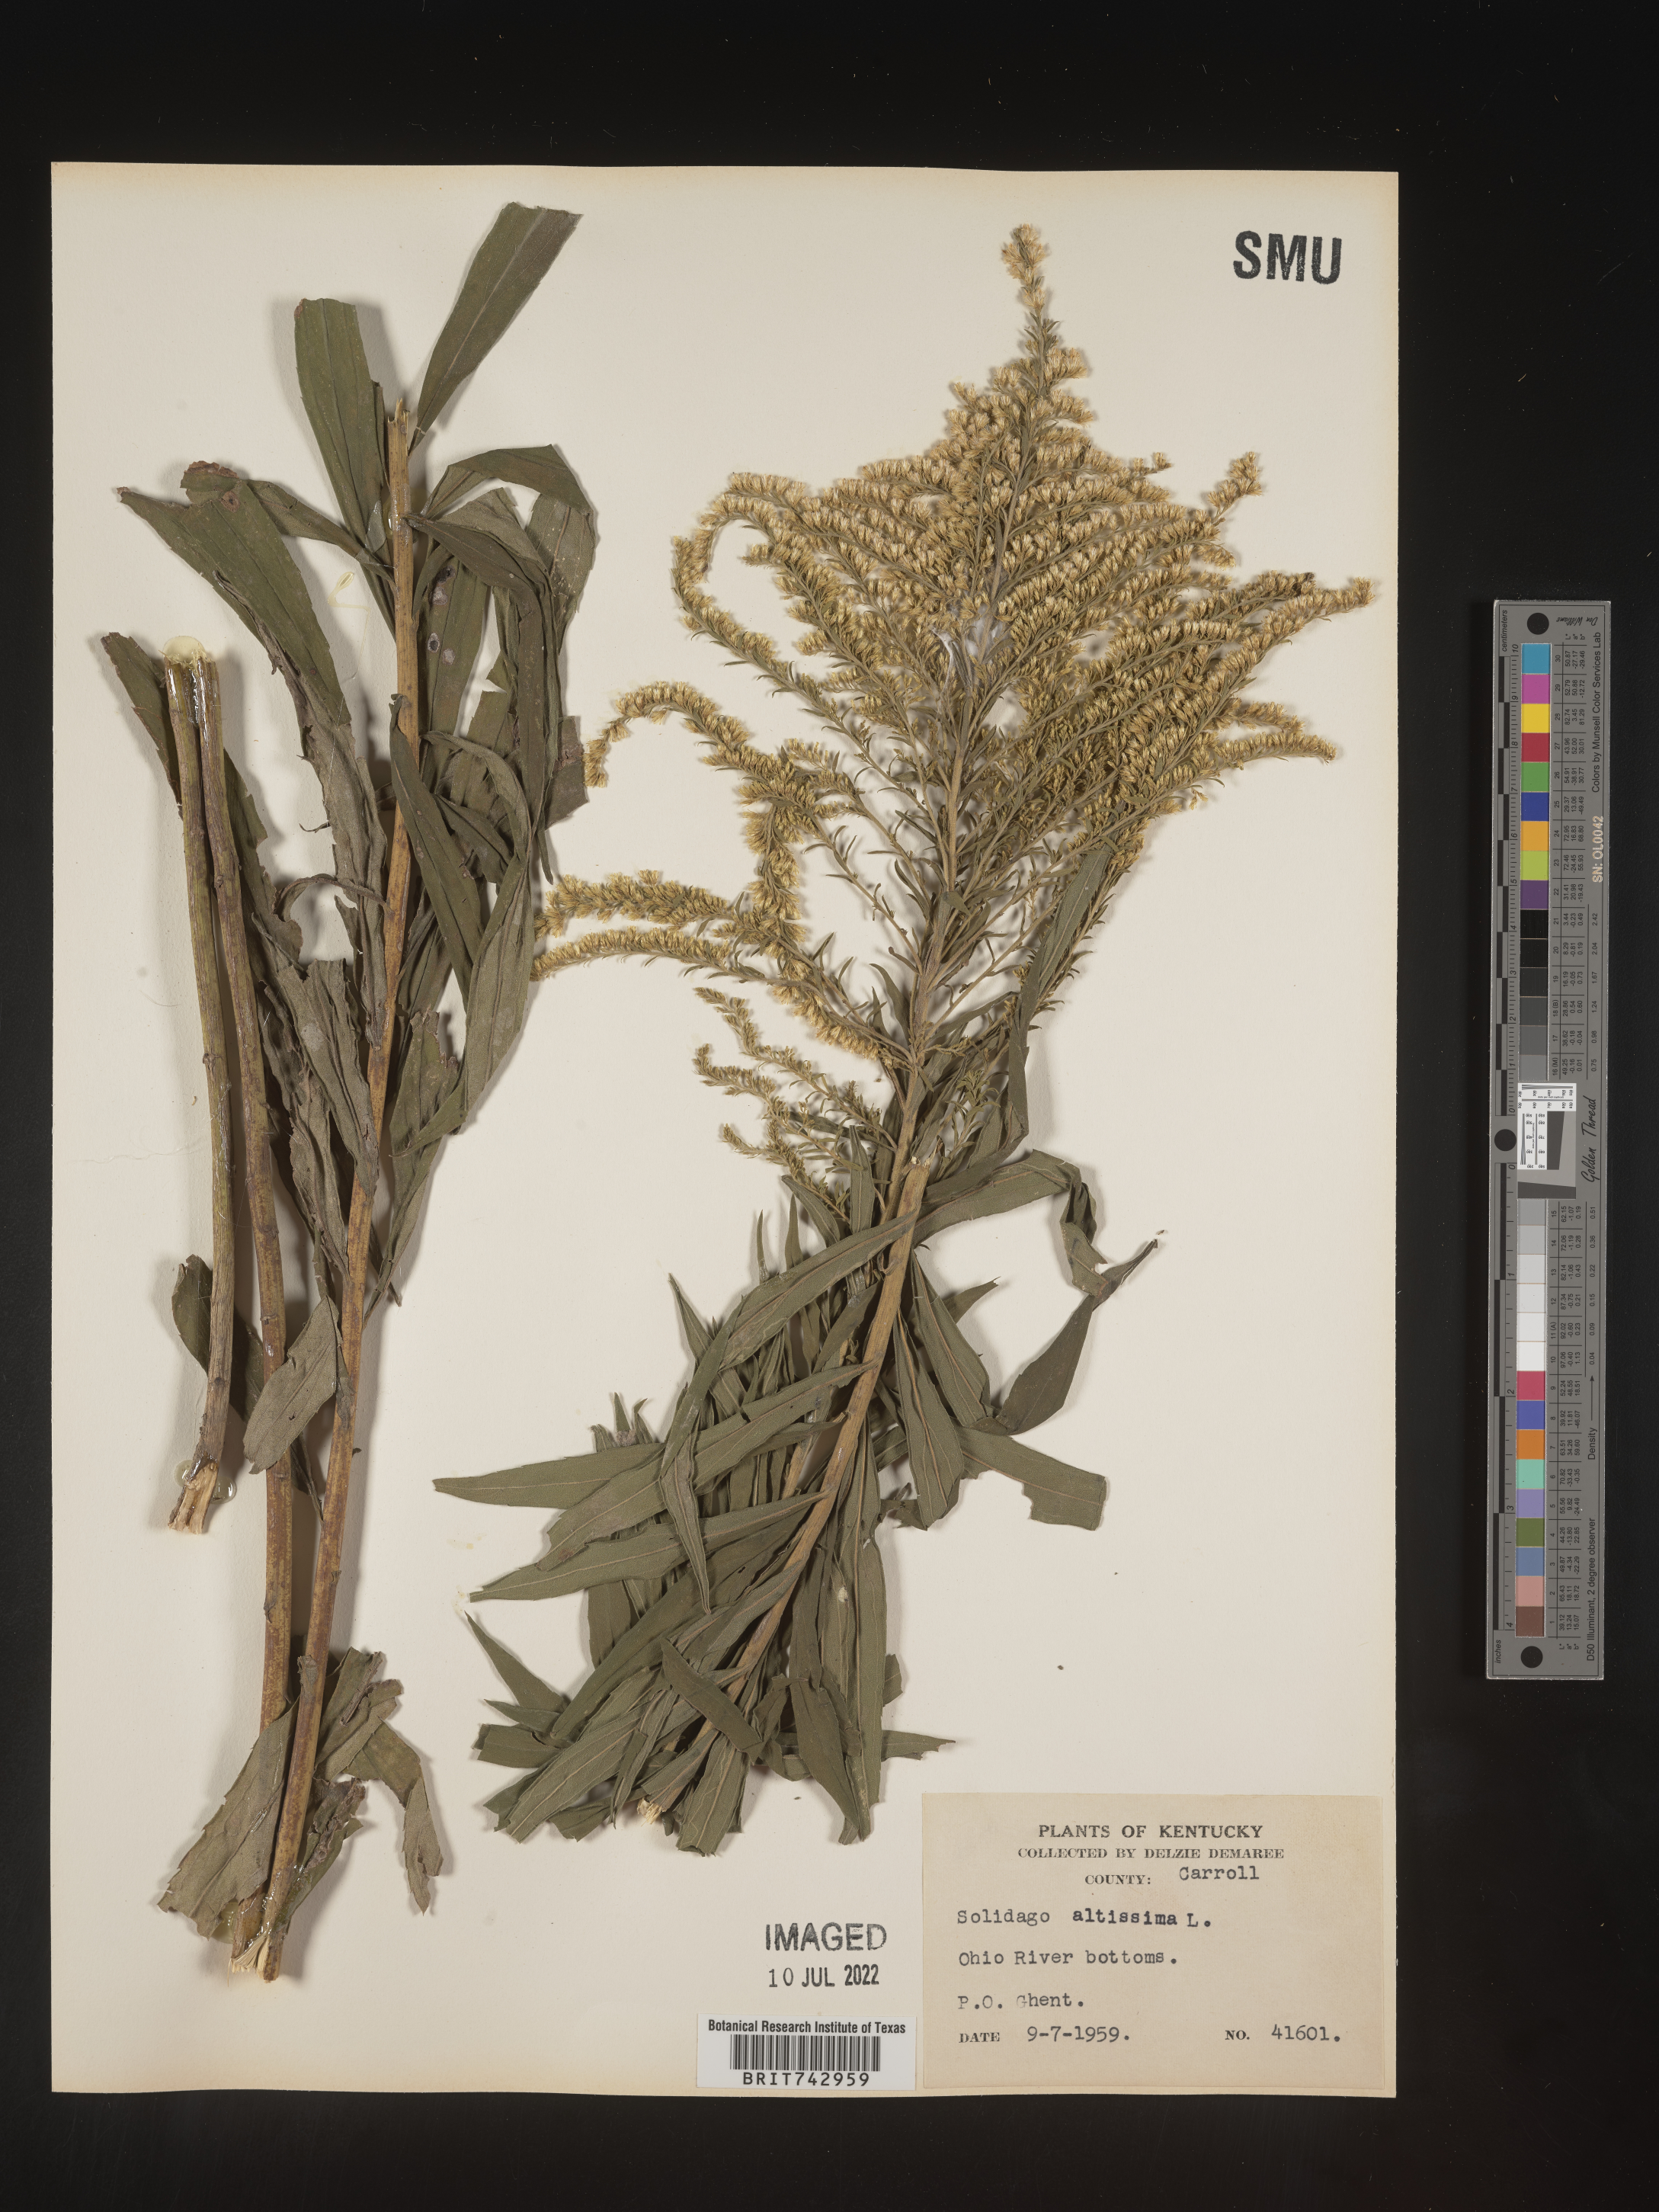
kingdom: Plantae
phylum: Tracheophyta
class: Magnoliopsida
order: Asterales
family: Asteraceae
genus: Solidago
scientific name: Solidago altissima
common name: Late goldenrod
